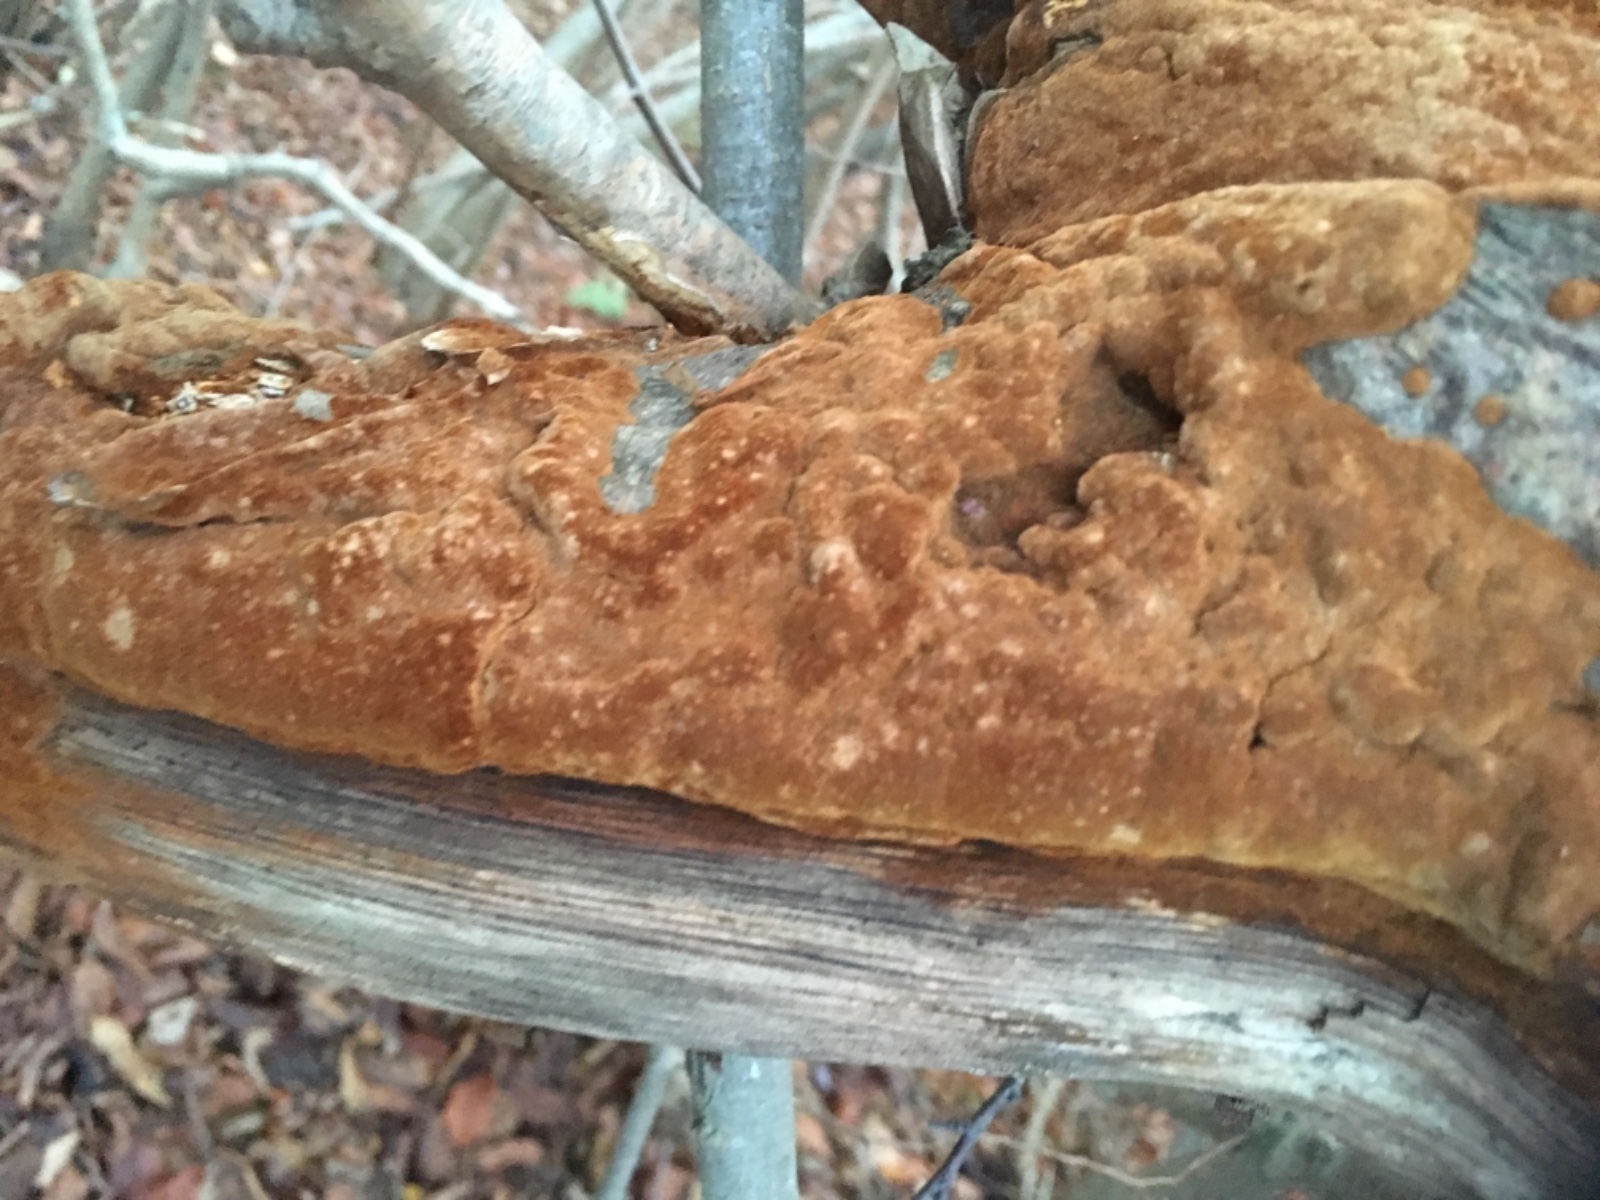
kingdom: Fungi
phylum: Basidiomycota
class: Agaricomycetes
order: Hymenochaetales
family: Hymenochaetaceae
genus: Fuscoporia
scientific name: Fuscoporia
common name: Ildporesvamp
